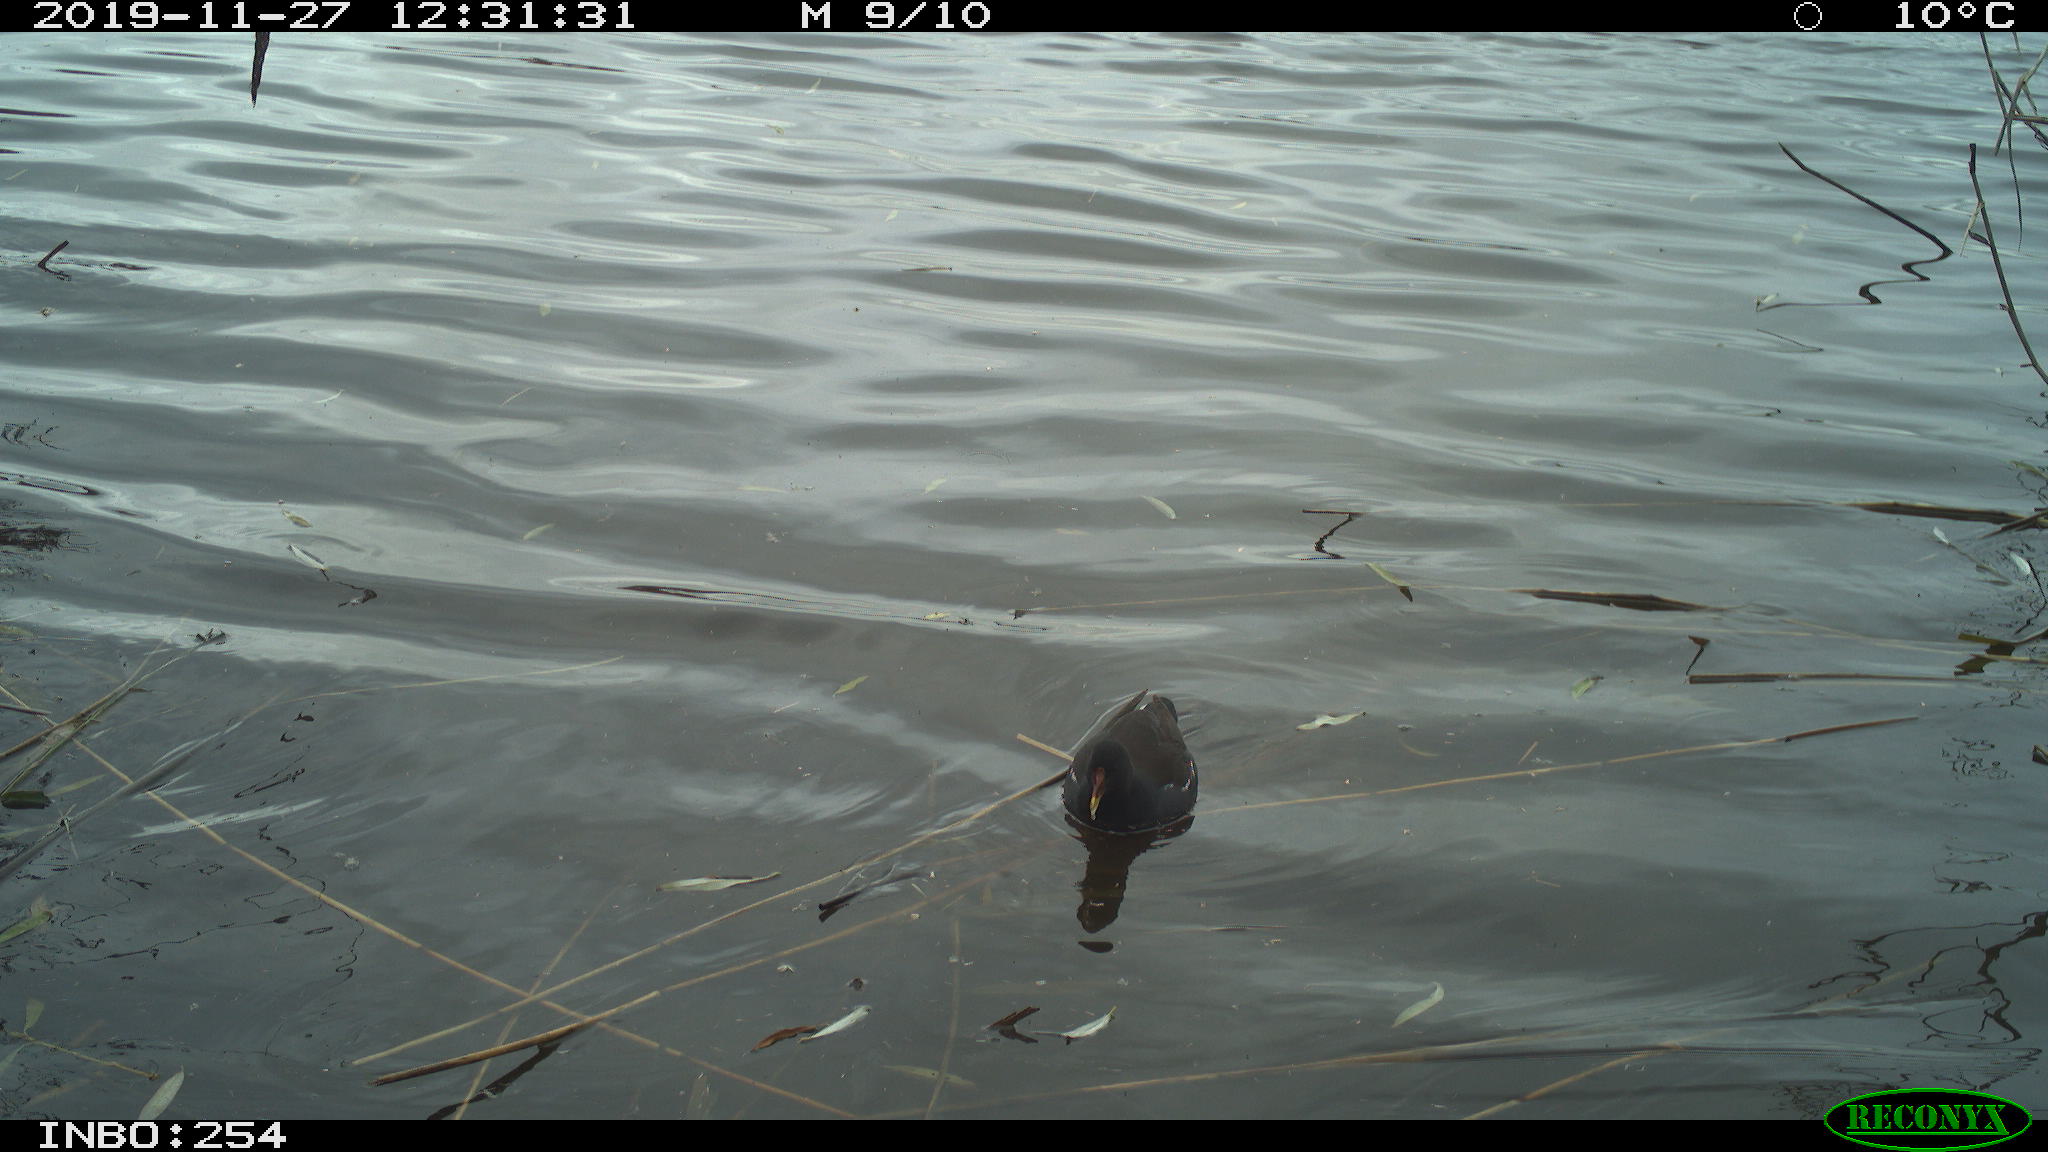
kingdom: Animalia
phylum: Chordata
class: Aves
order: Gruiformes
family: Rallidae
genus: Gallinula
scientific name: Gallinula chloropus
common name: Common moorhen
